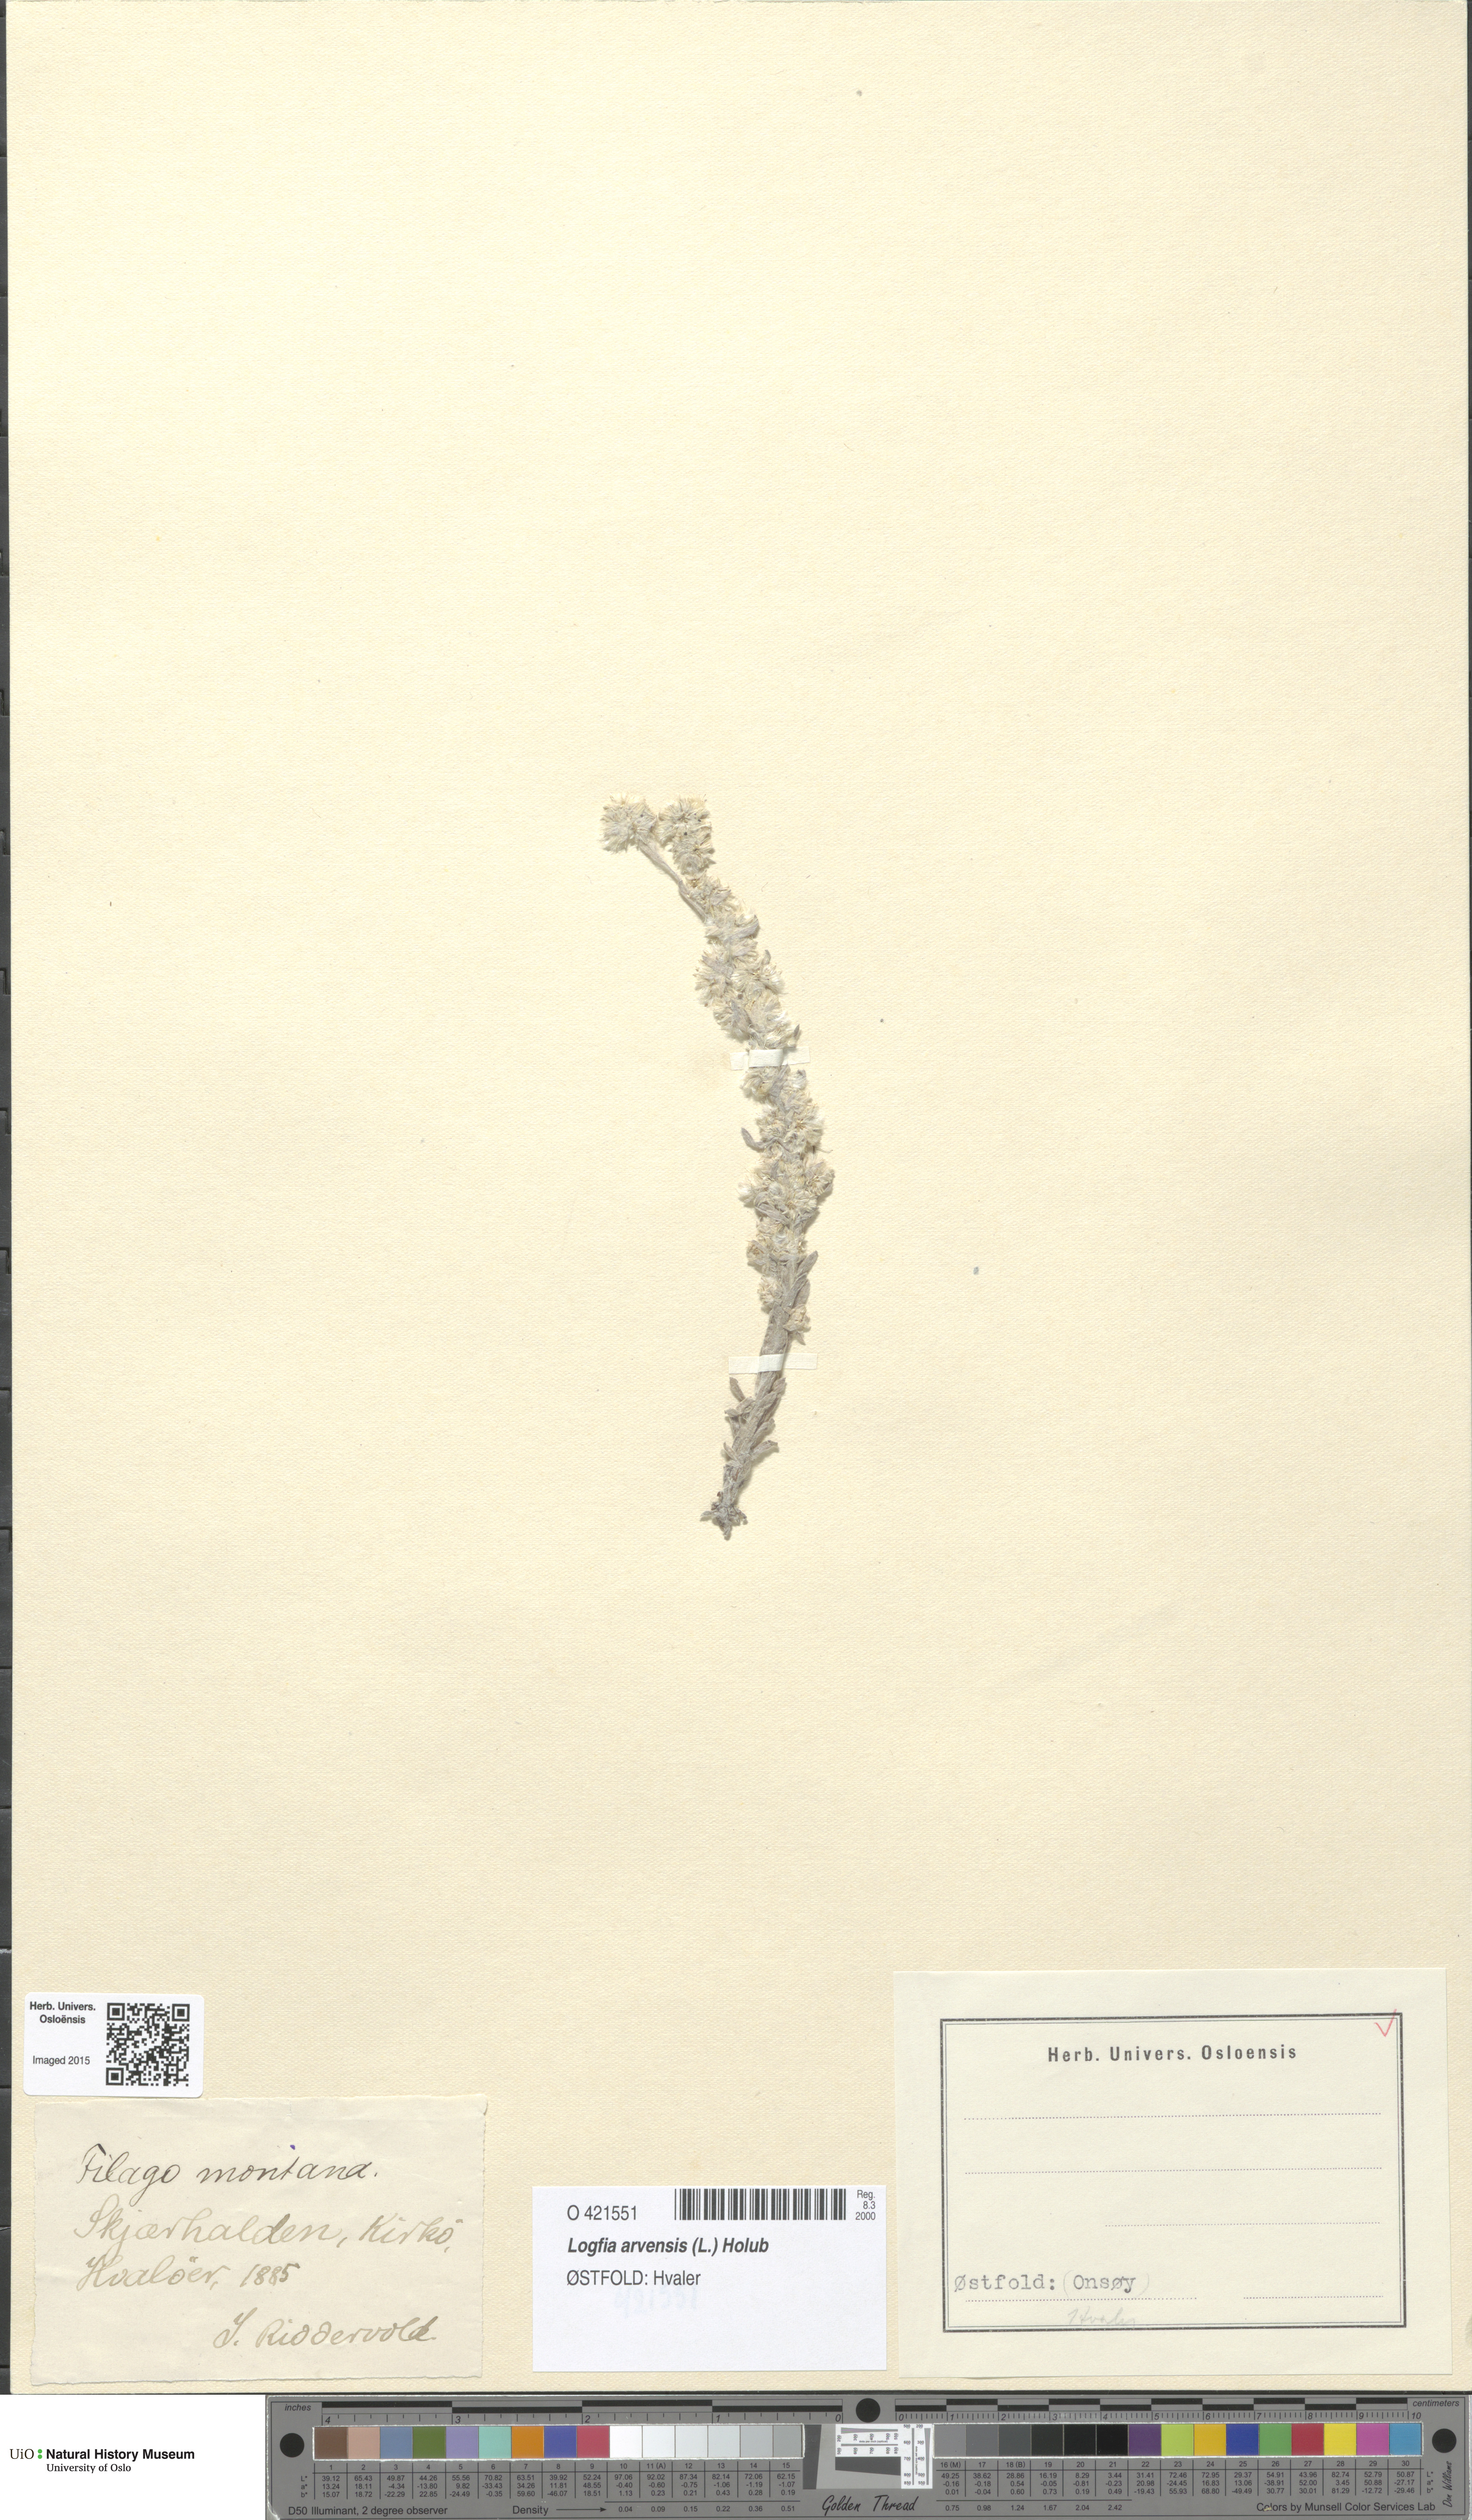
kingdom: Plantae
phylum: Tracheophyta
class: Magnoliopsida
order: Asterales
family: Asteraceae
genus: Filago
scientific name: Filago arvensis
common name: Field cudweed
